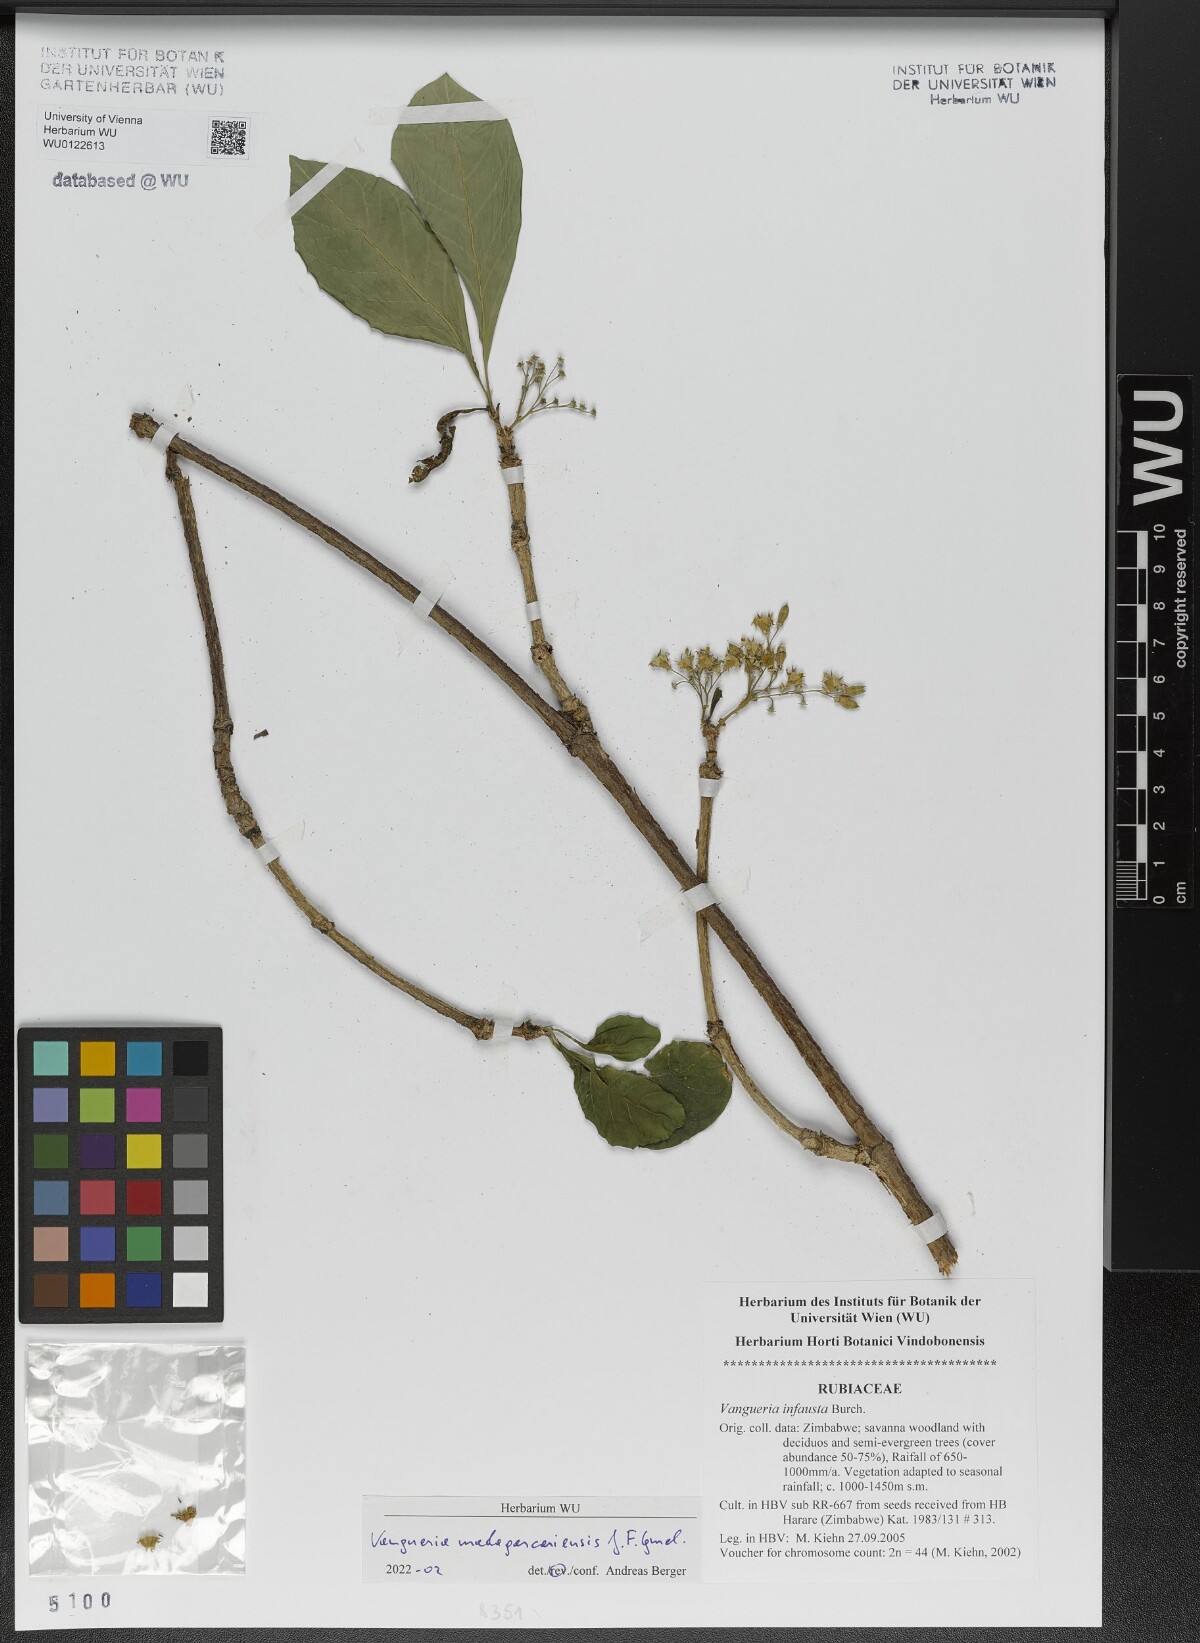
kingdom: Plantae
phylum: Tracheophyta
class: Magnoliopsida
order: Gentianales
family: Rubiaceae
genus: Vangueria
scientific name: Vangueria madagascariensis
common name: Smooth wild-medlar
